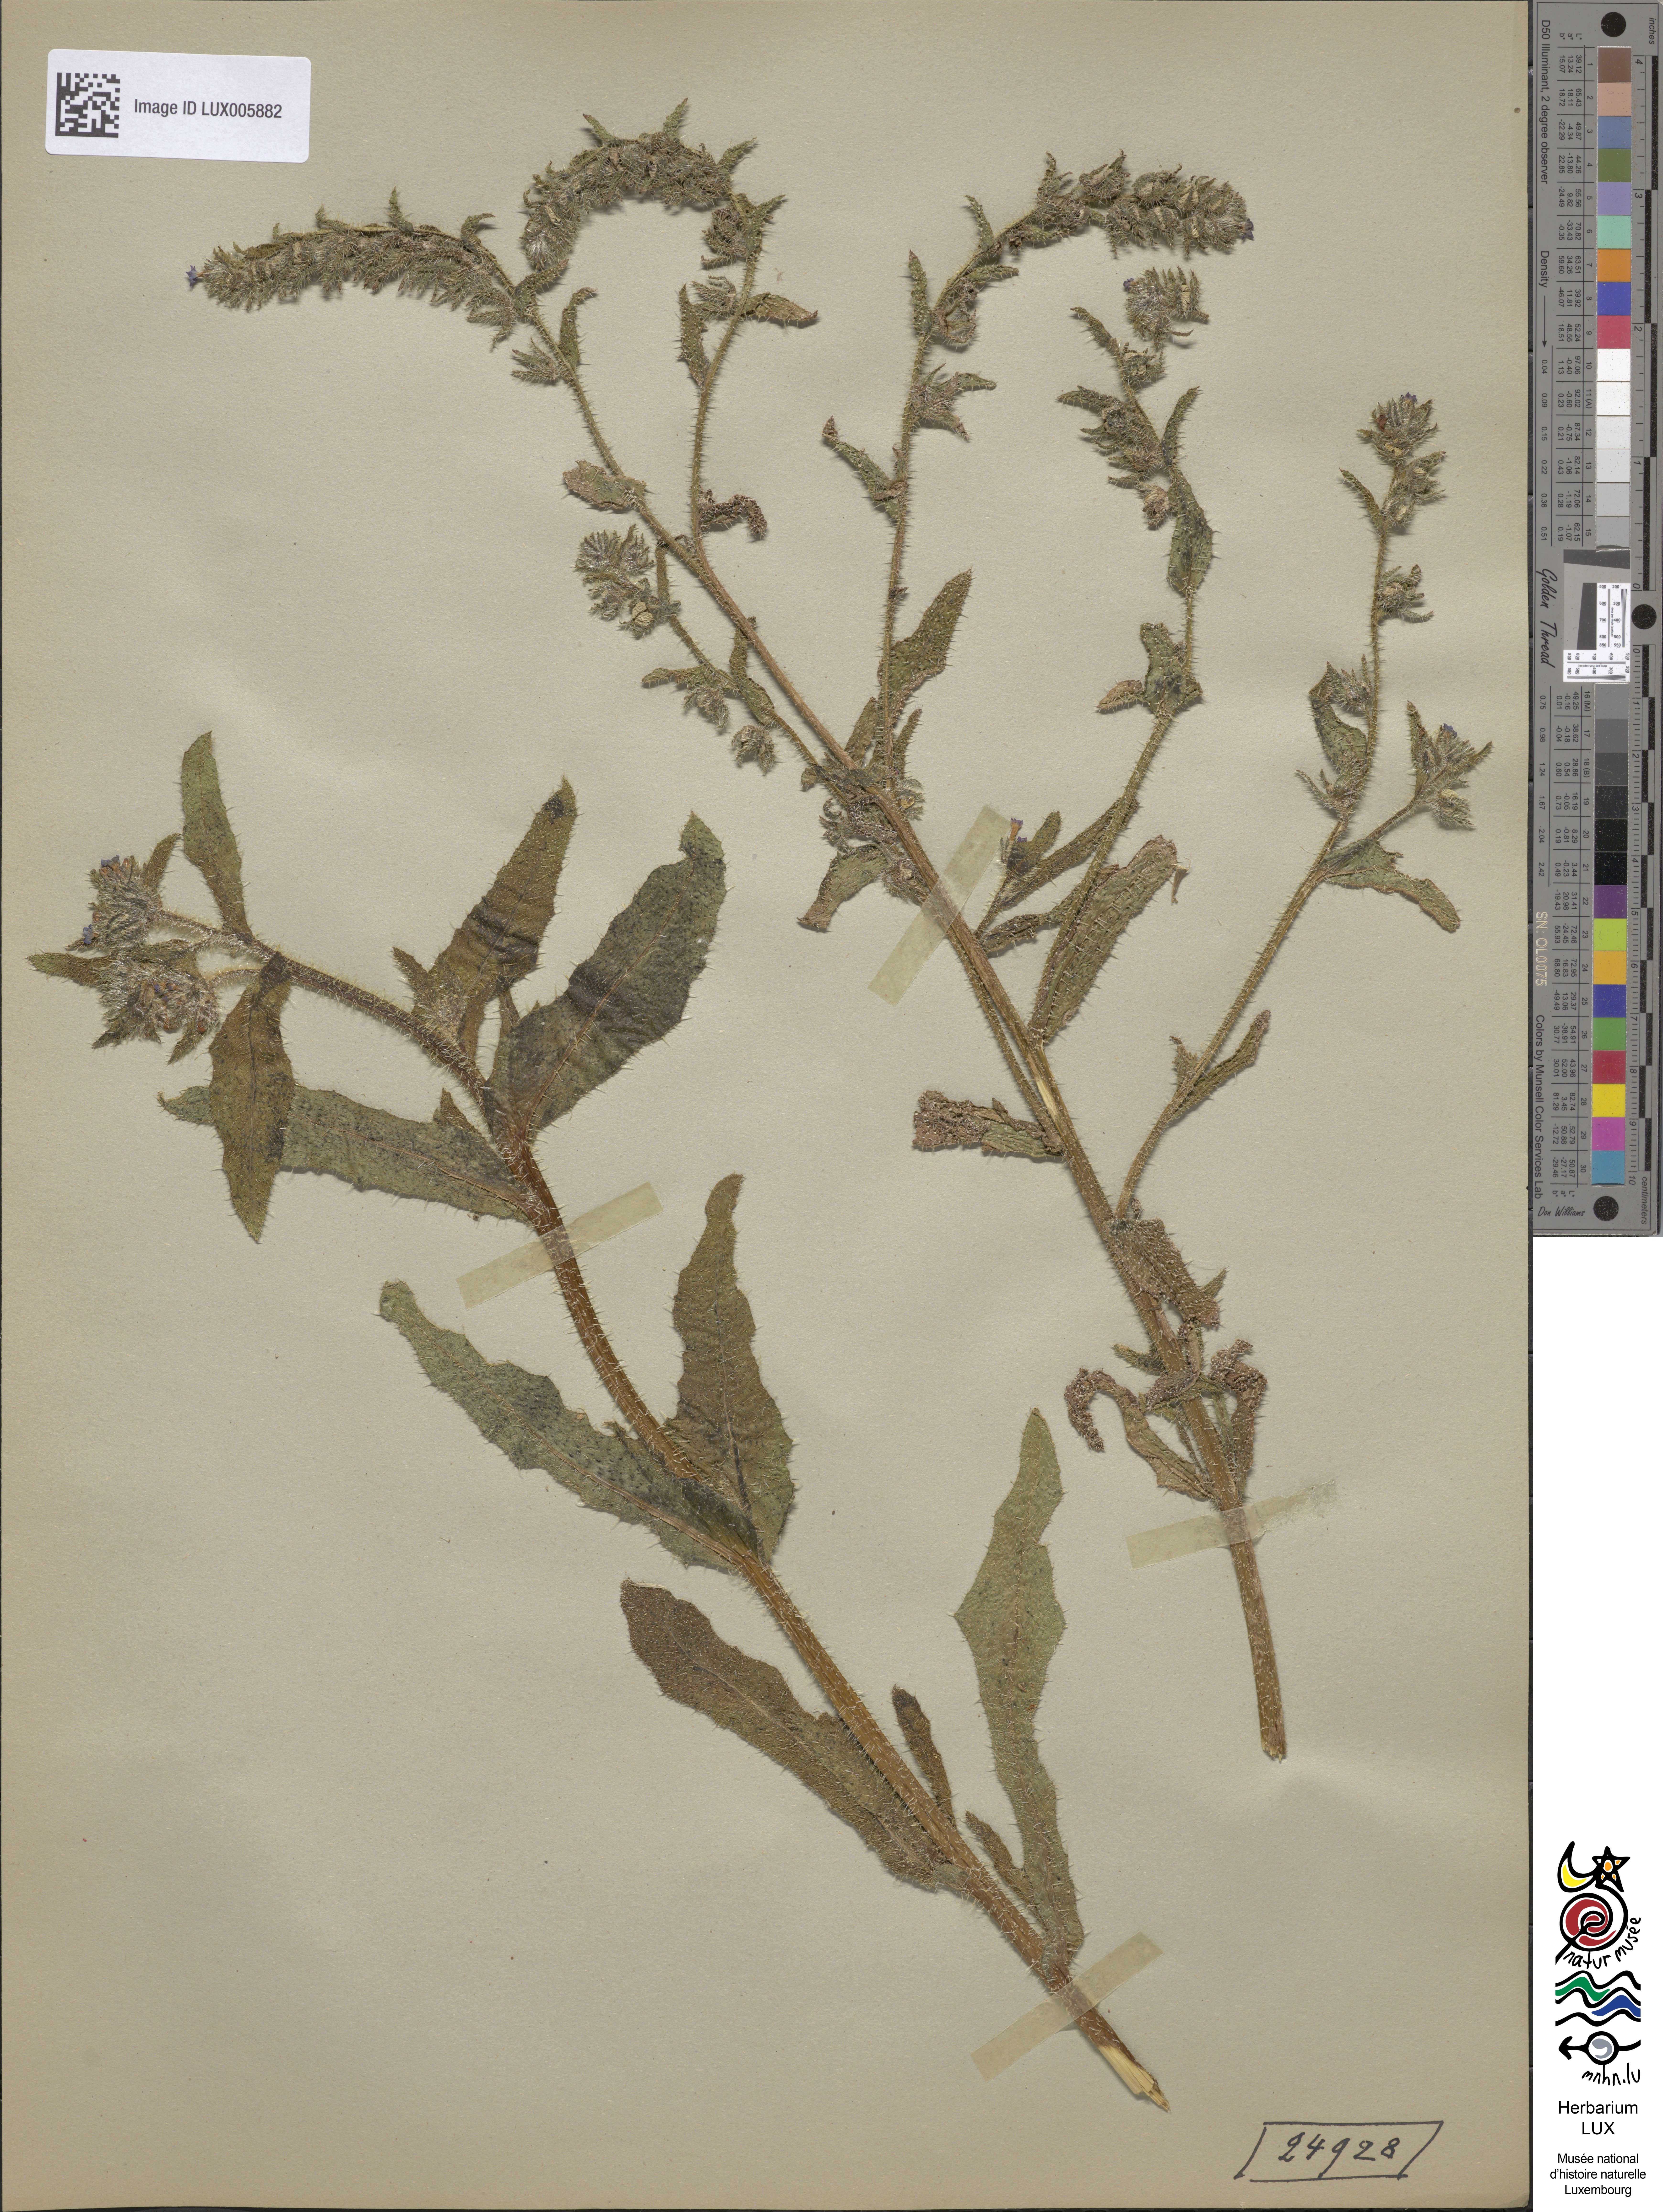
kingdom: Plantae
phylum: Tracheophyta
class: Magnoliopsida
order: Boraginales
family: Boraginaceae
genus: Lycopsis
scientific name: Lycopsis arvensis
